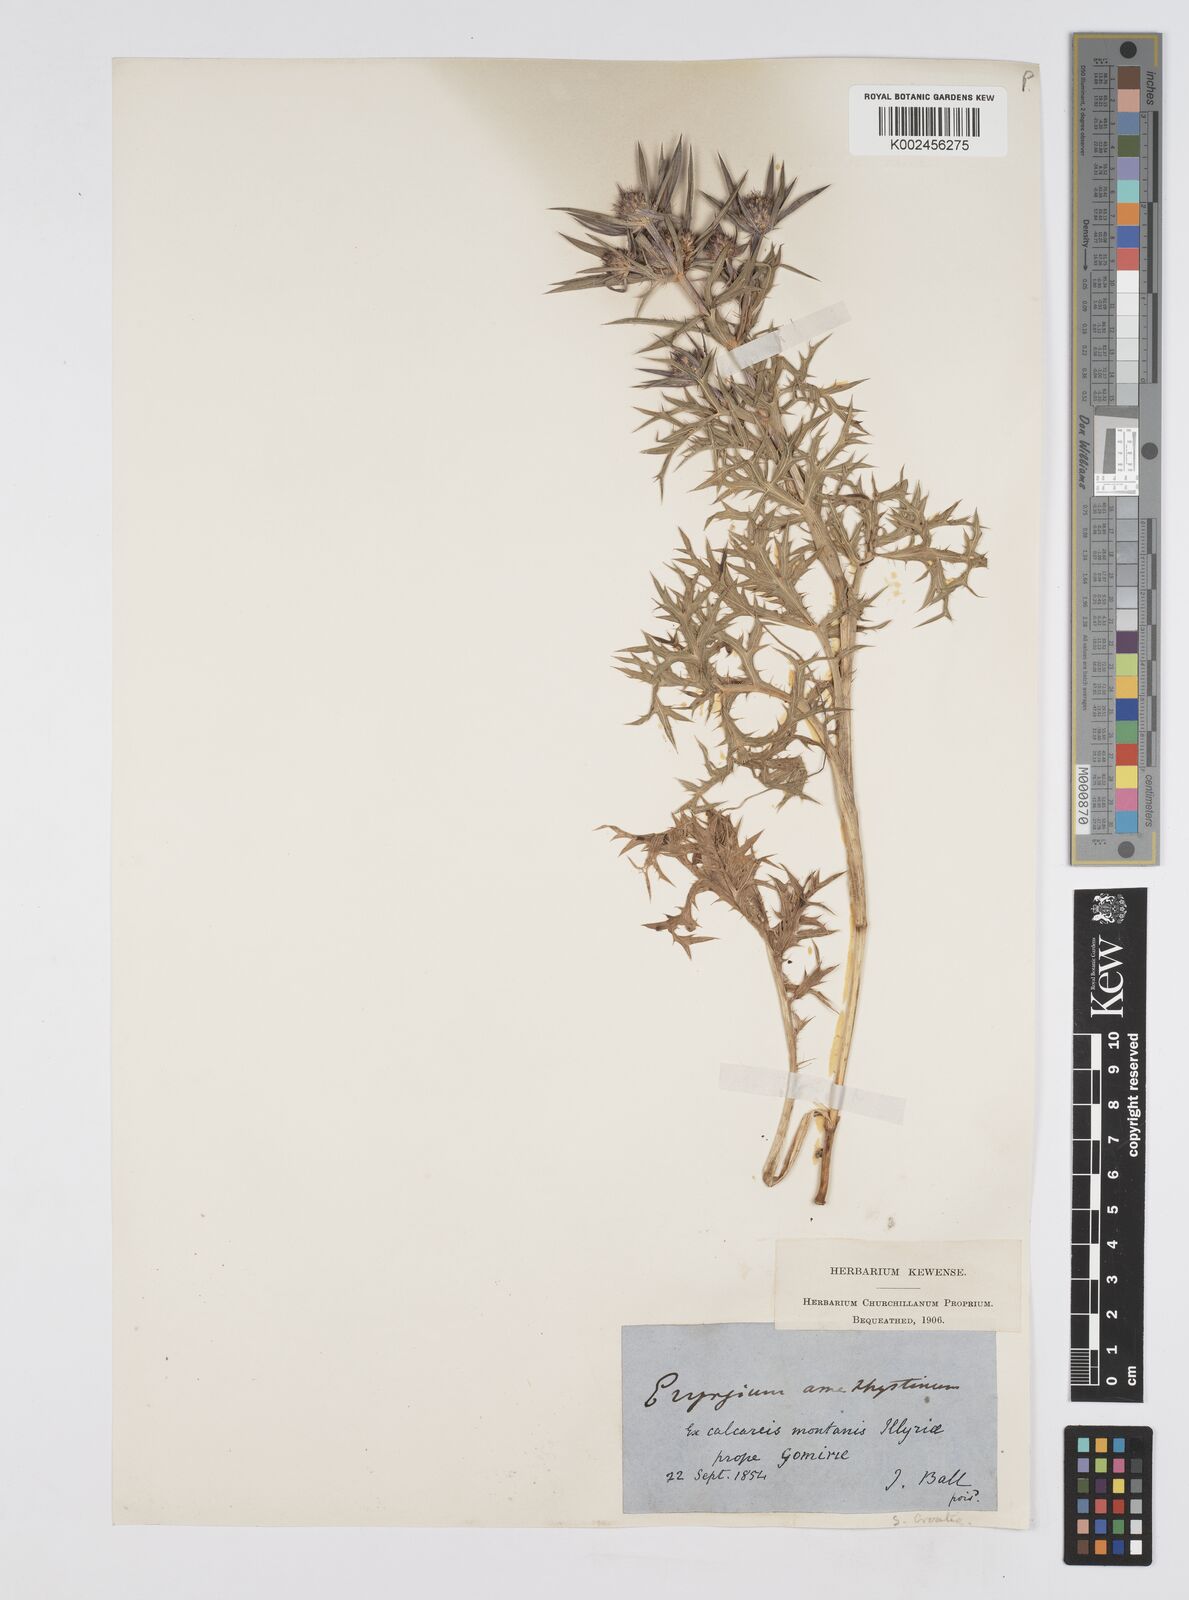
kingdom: Plantae
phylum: Tracheophyta
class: Magnoliopsida
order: Apiales
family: Apiaceae
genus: Eryngium
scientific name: Eryngium amethystinum
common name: Amethyst eryngo
